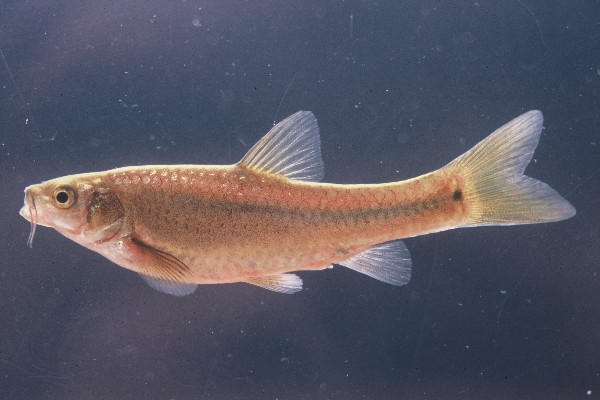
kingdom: Animalia
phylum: Chordata
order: Cypriniformes
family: Cyprinidae
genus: Enteromius
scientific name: Enteromius breviceps
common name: Shorthead barb
